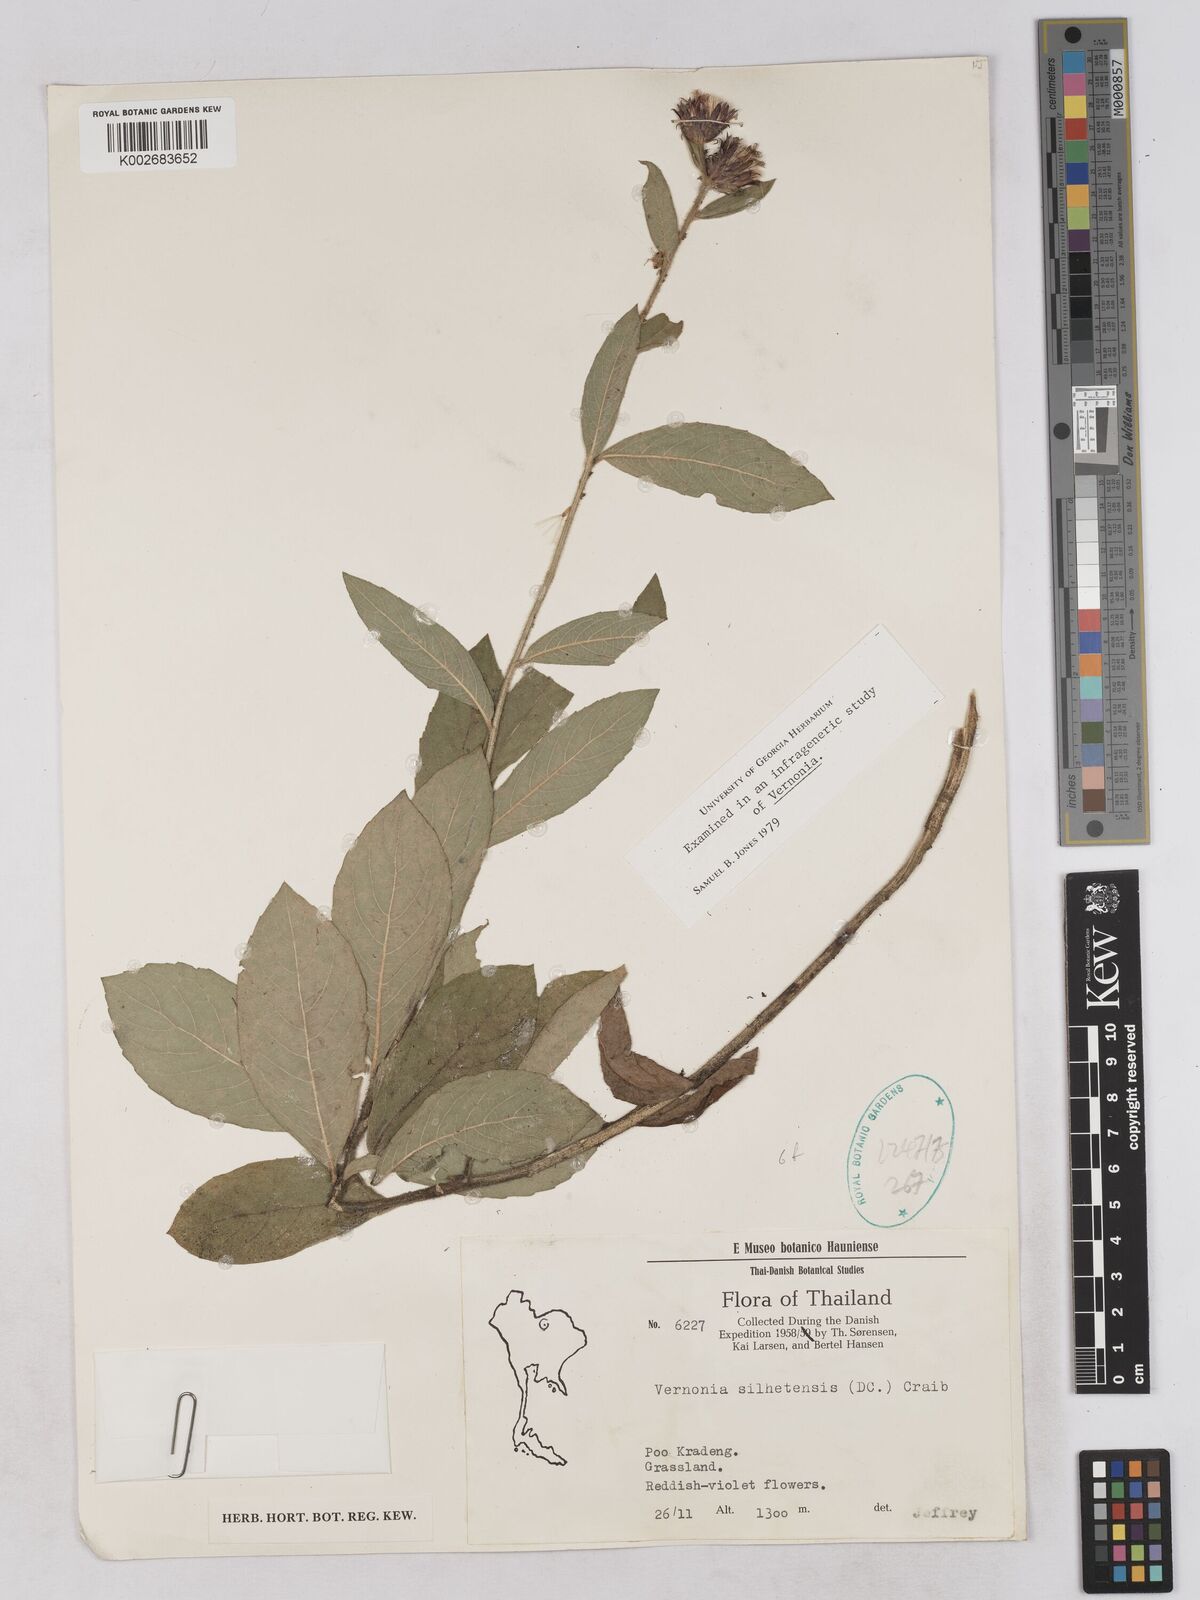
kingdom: Plantae
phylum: Tracheophyta
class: Magnoliopsida
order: Asterales
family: Asteraceae
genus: Acilepis
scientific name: Acilepis silhetensis
